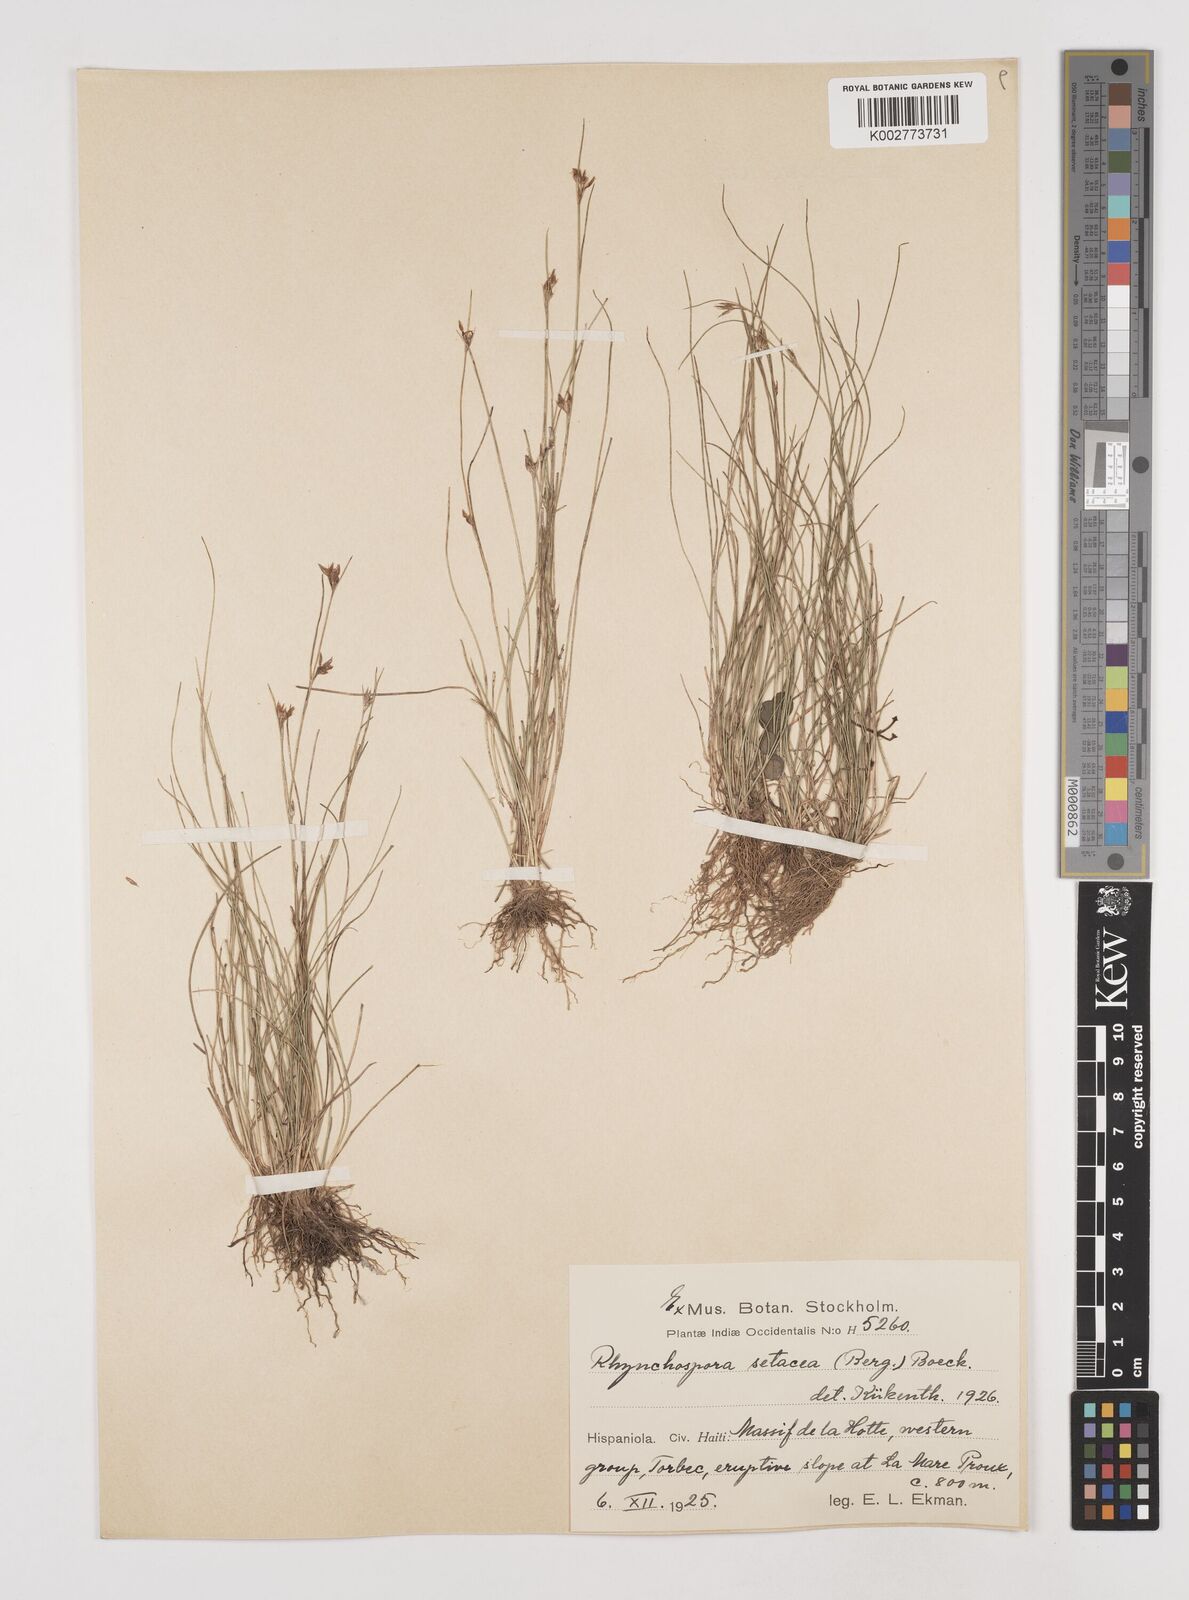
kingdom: Plantae
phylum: Tracheophyta
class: Liliopsida
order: Poales
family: Cyperaceae
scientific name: Cyperaceae
